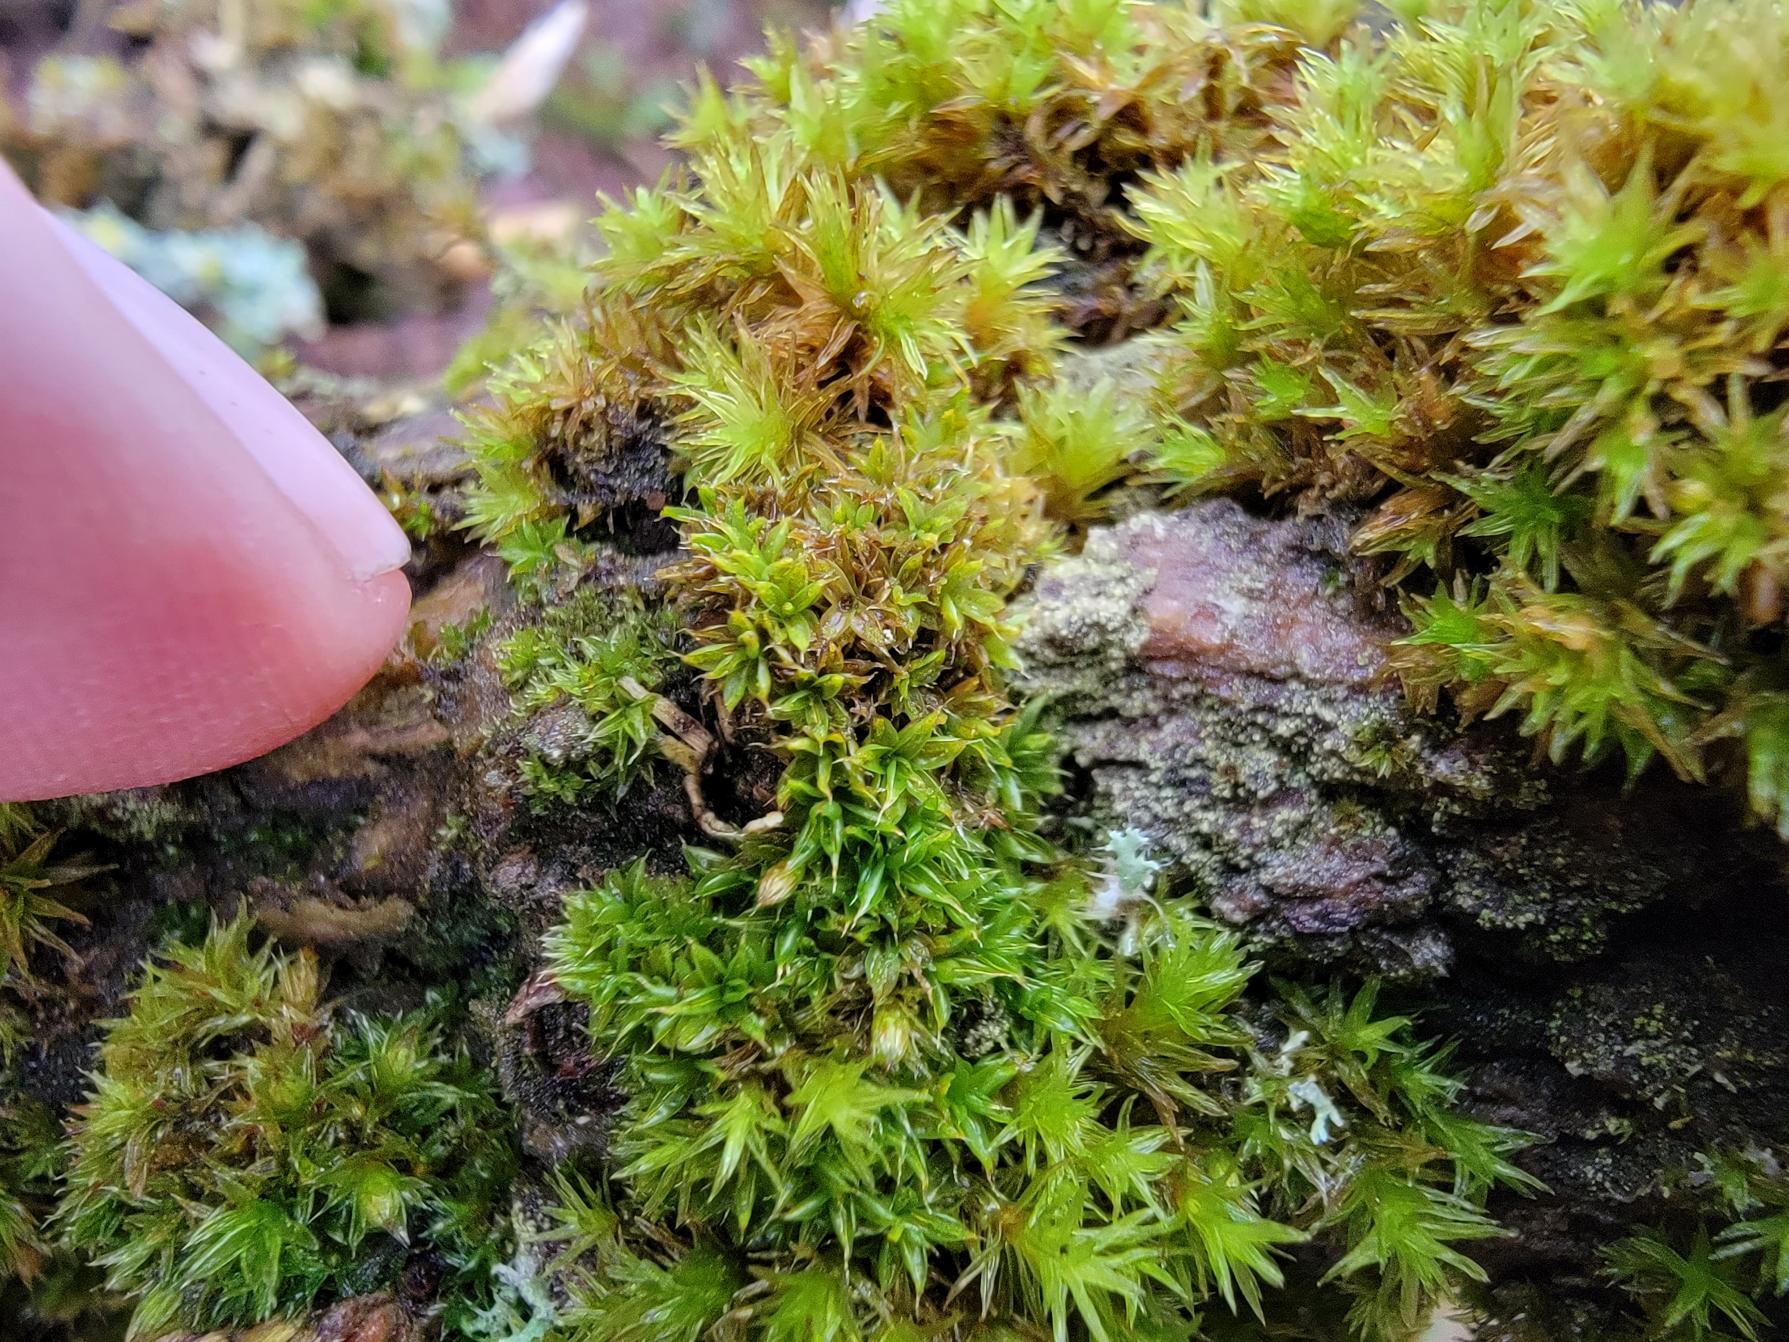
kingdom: Plantae
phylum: Bryophyta
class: Bryopsida
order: Pottiales
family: Pottiaceae
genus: Syntrichia
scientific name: Syntrichia papillosa
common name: Bark-hårstjerne
